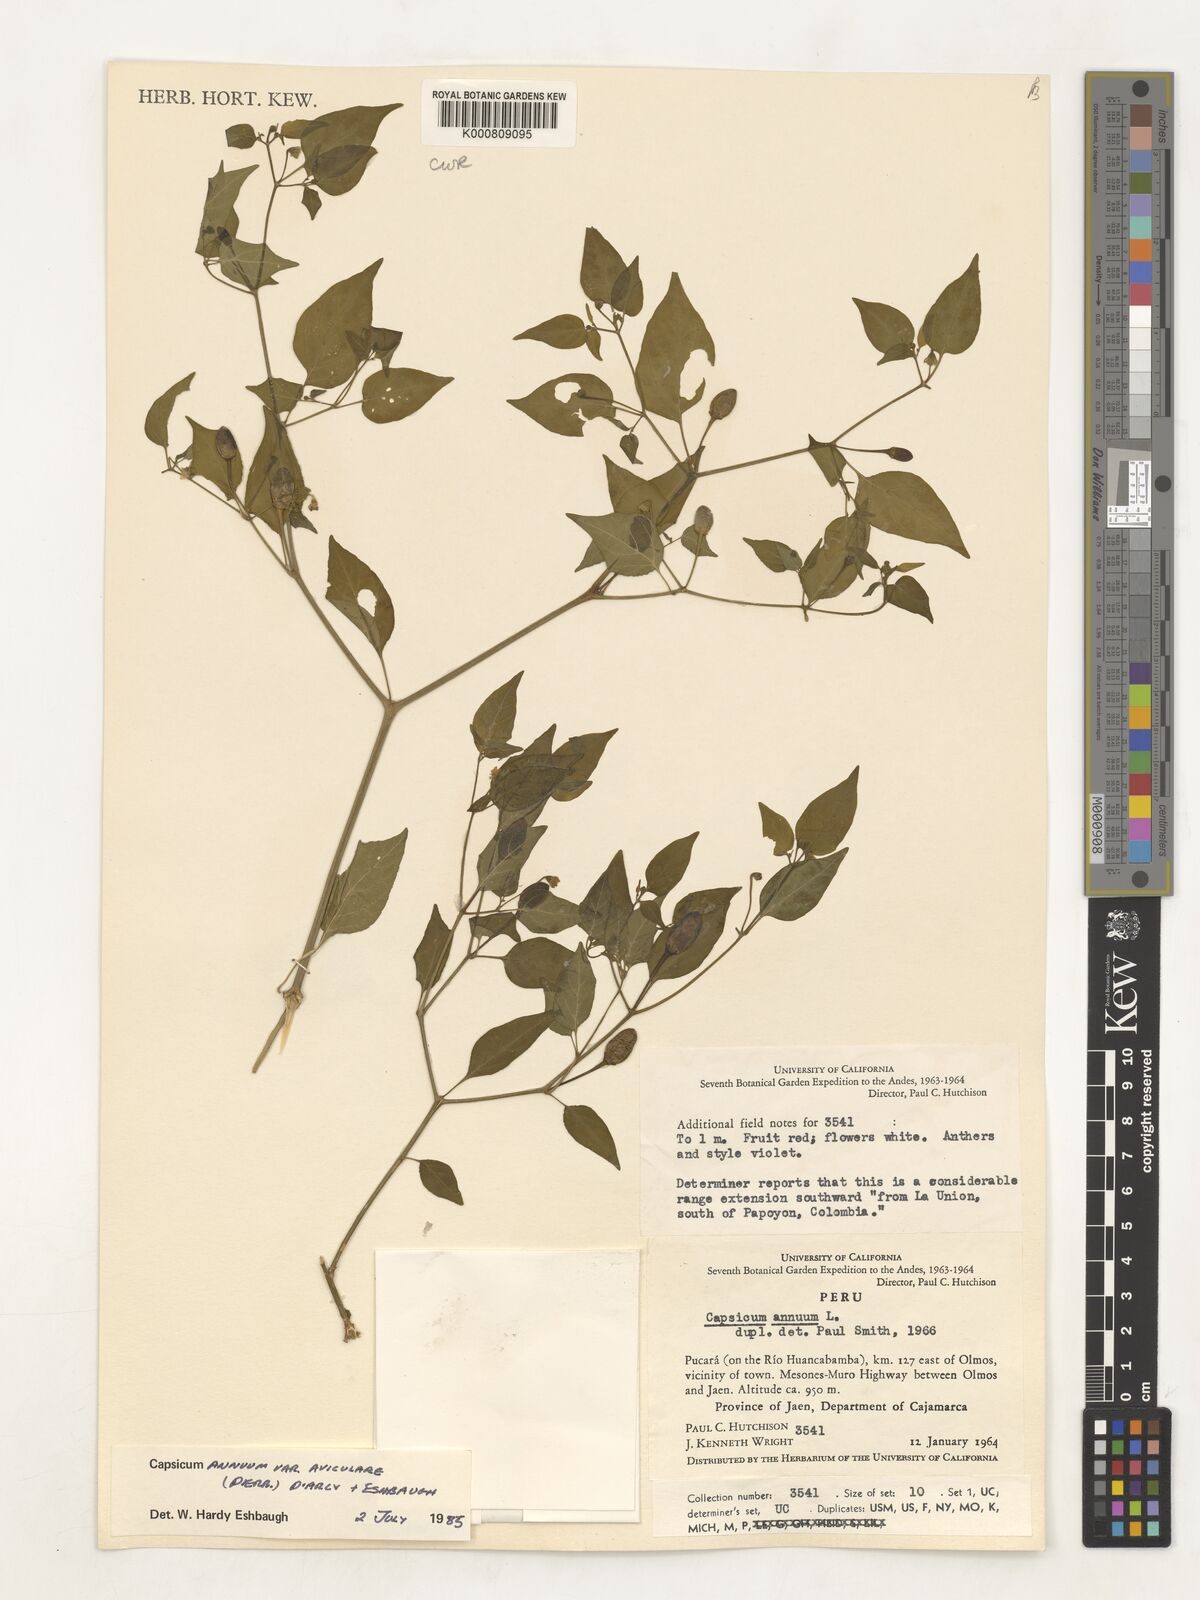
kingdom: Plantae
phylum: Tracheophyta
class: Magnoliopsida
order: Solanales
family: Solanaceae
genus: Capsicum
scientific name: Capsicum annuum
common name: Sweet pepper
